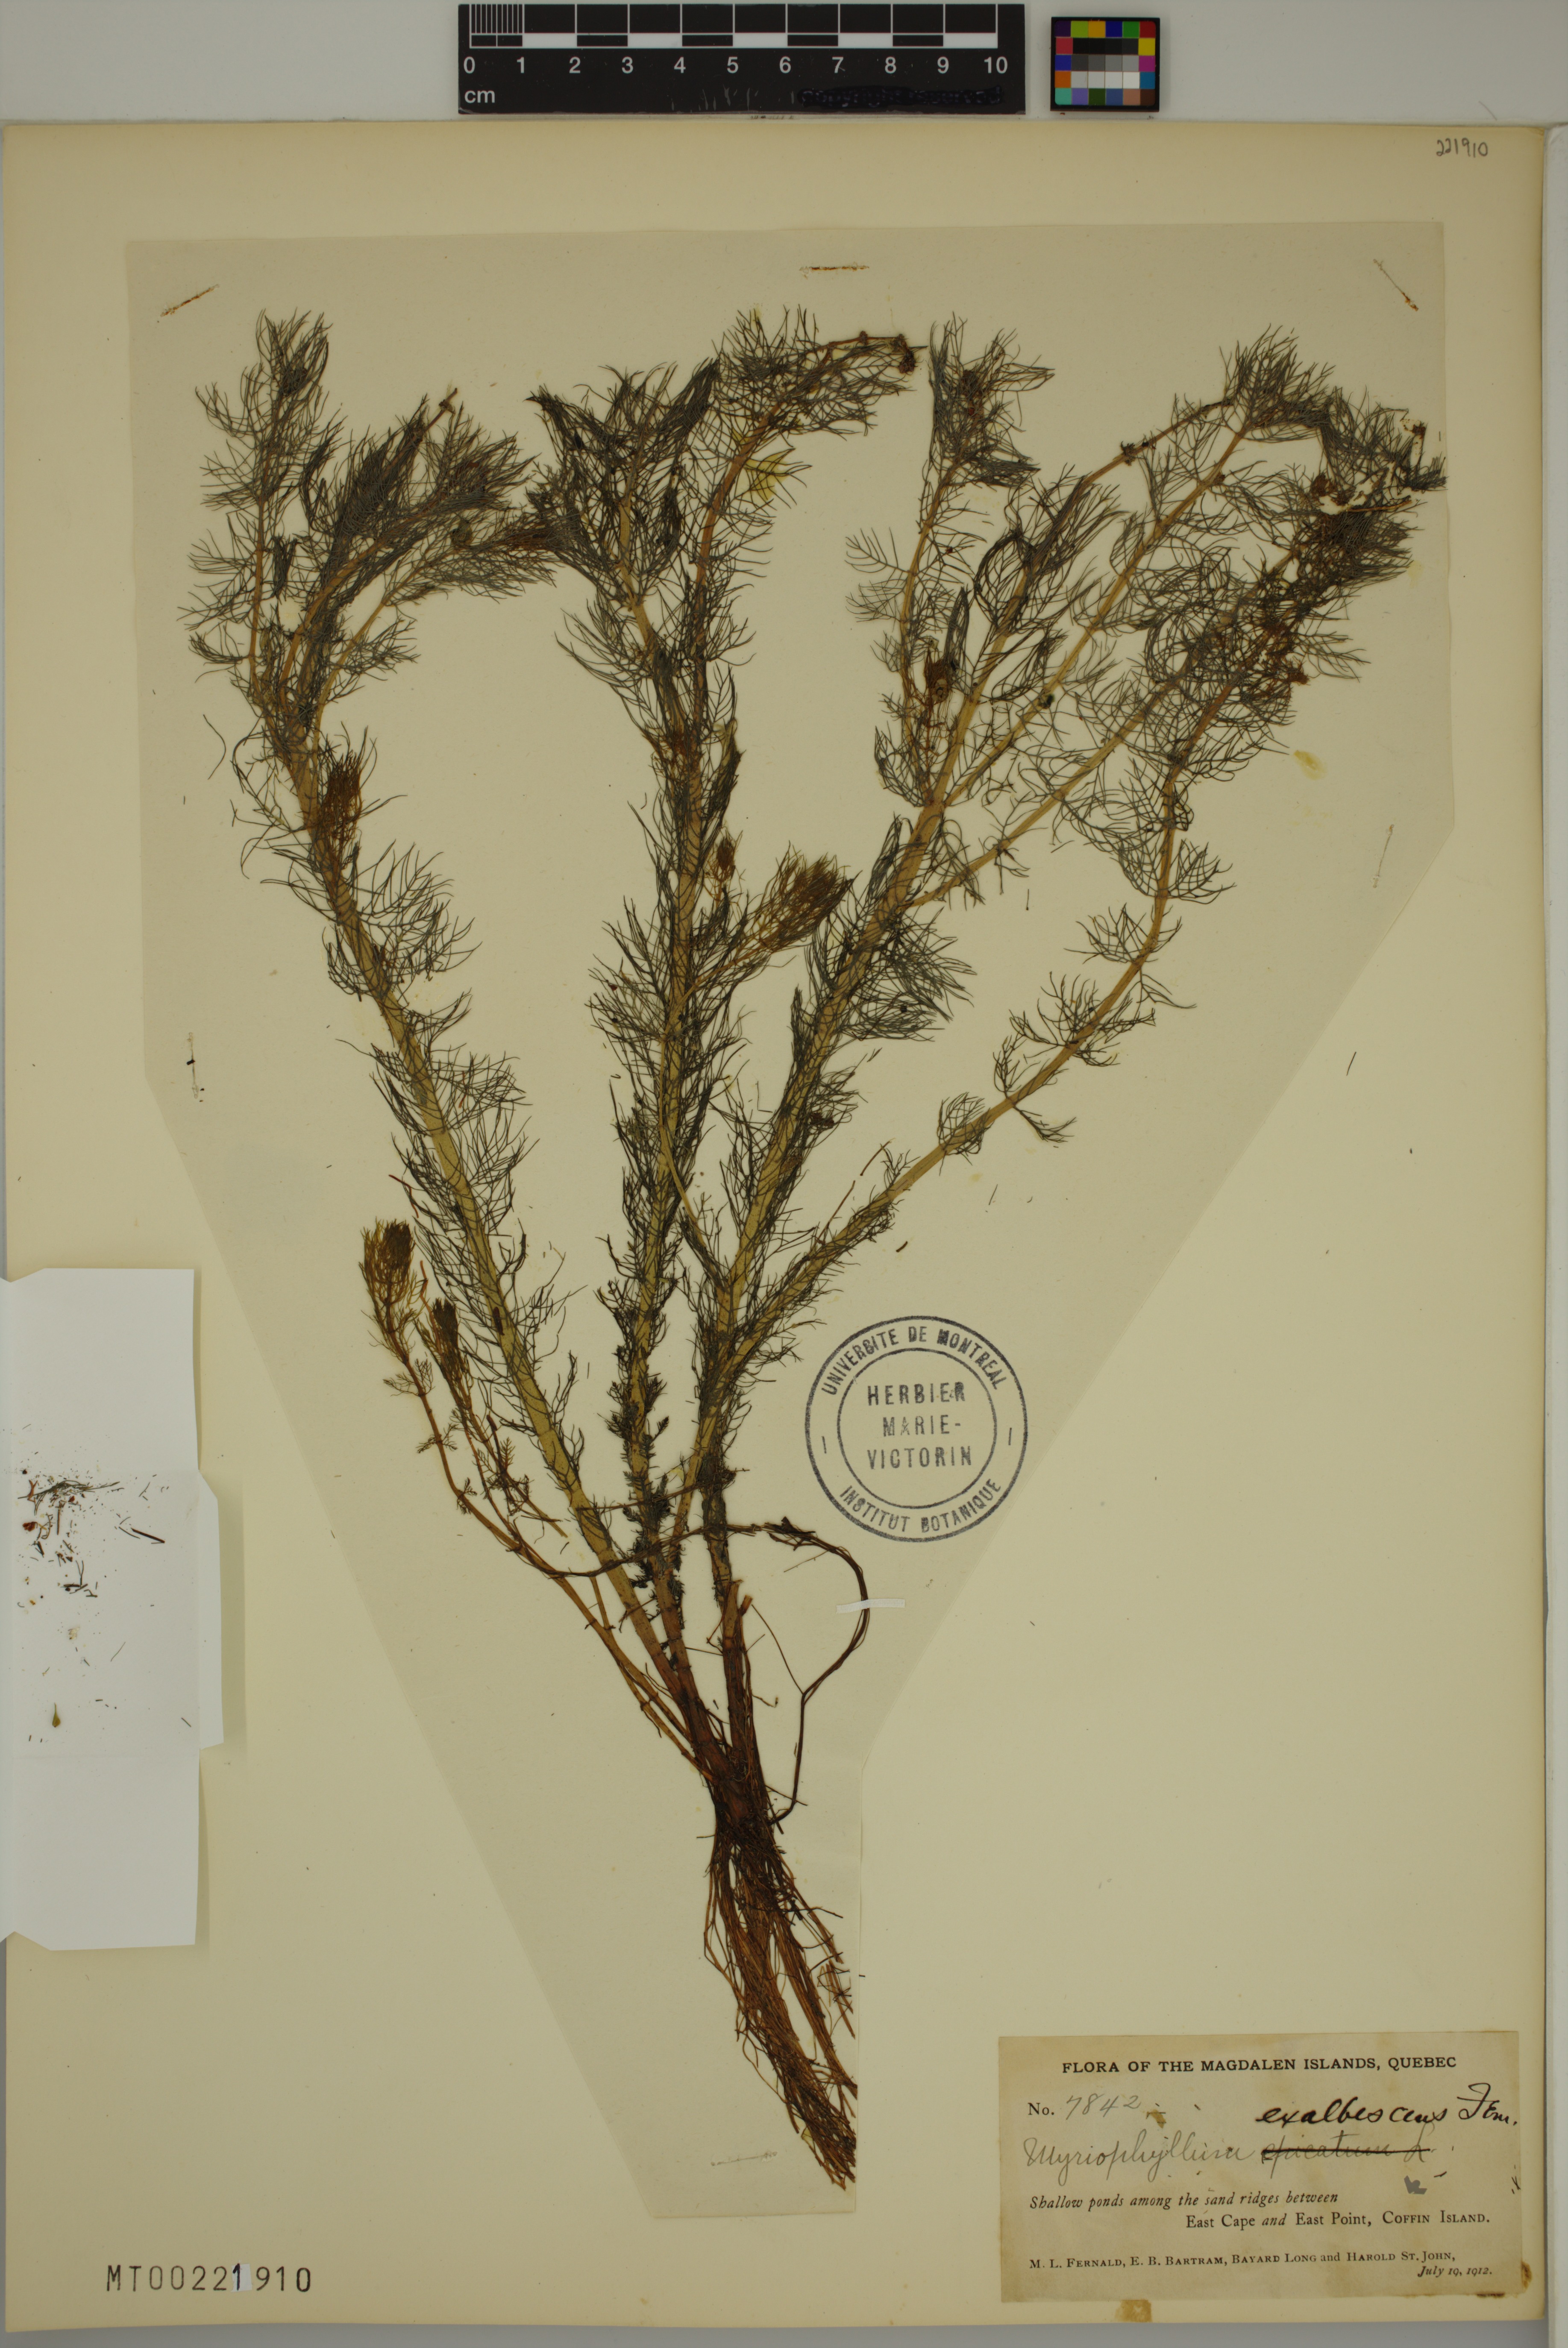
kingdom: Plantae
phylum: Tracheophyta
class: Magnoliopsida
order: Saxifragales
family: Haloragaceae
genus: Myriophyllum
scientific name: Myriophyllum sibiricum
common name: Siberian water-milfoil
